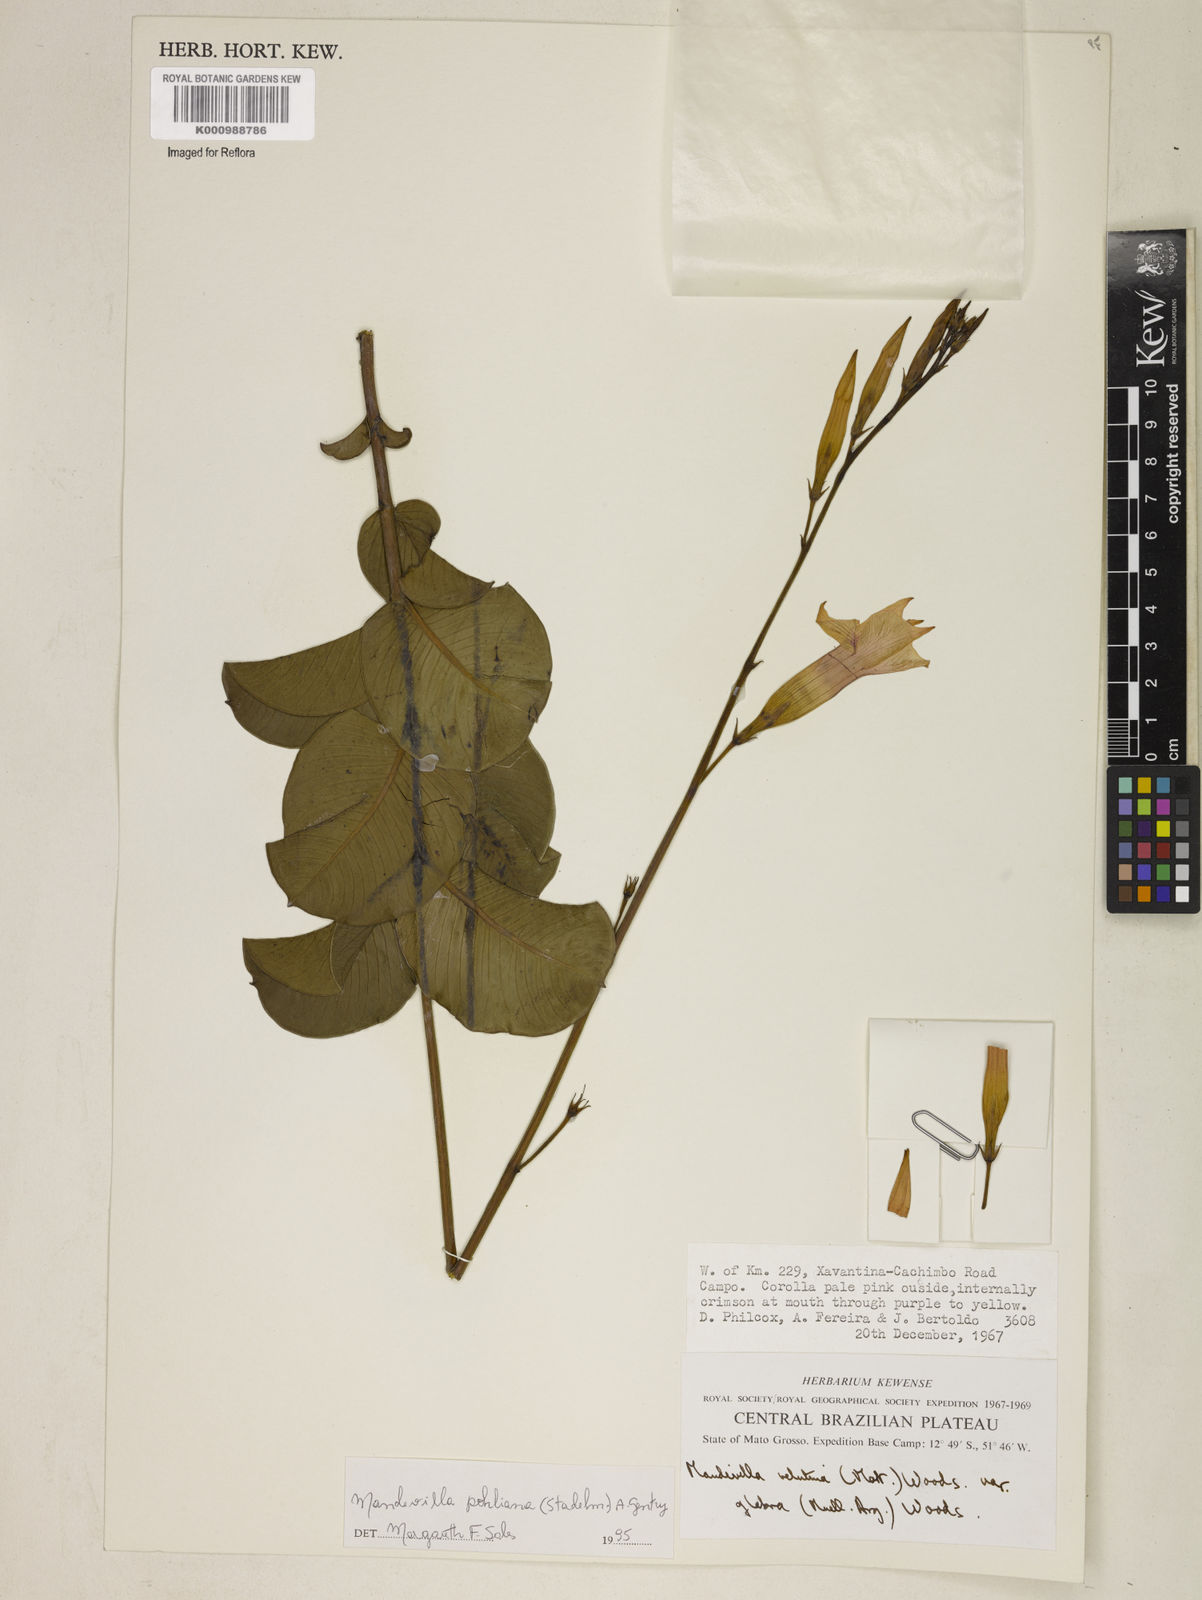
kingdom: Plantae
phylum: Tracheophyta
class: Magnoliopsida
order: Gentianales
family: Apocynaceae
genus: Mandevilla
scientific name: Mandevilla pohliana
